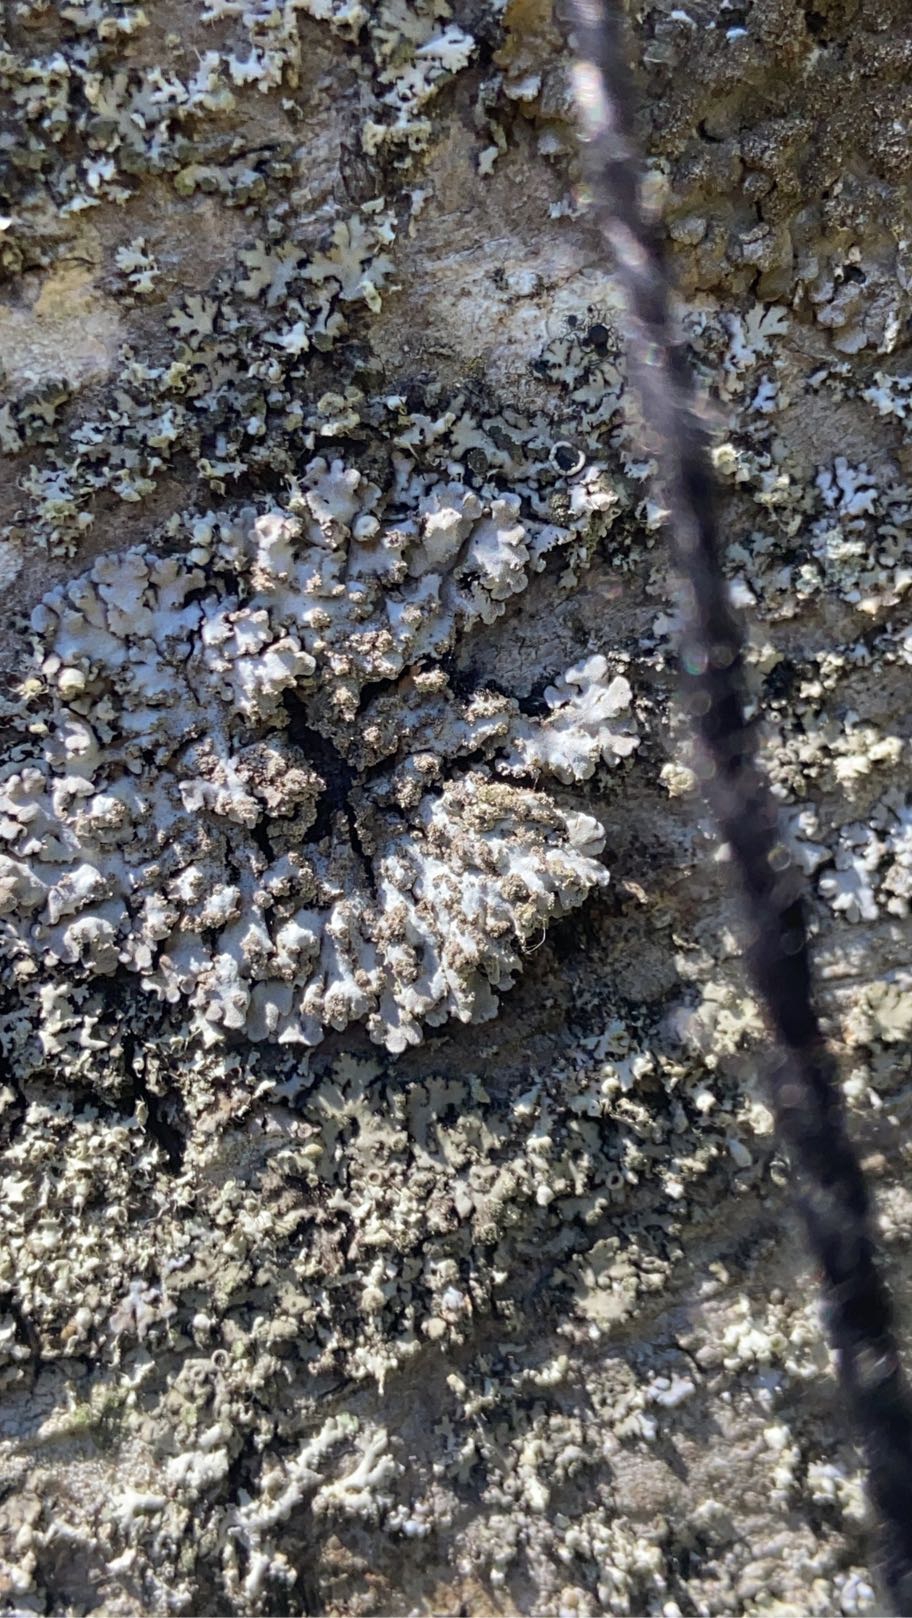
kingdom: Fungi
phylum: Ascomycota
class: Lecanoromycetes
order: Caliciales
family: Physciaceae
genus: Physconia
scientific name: Physconia
